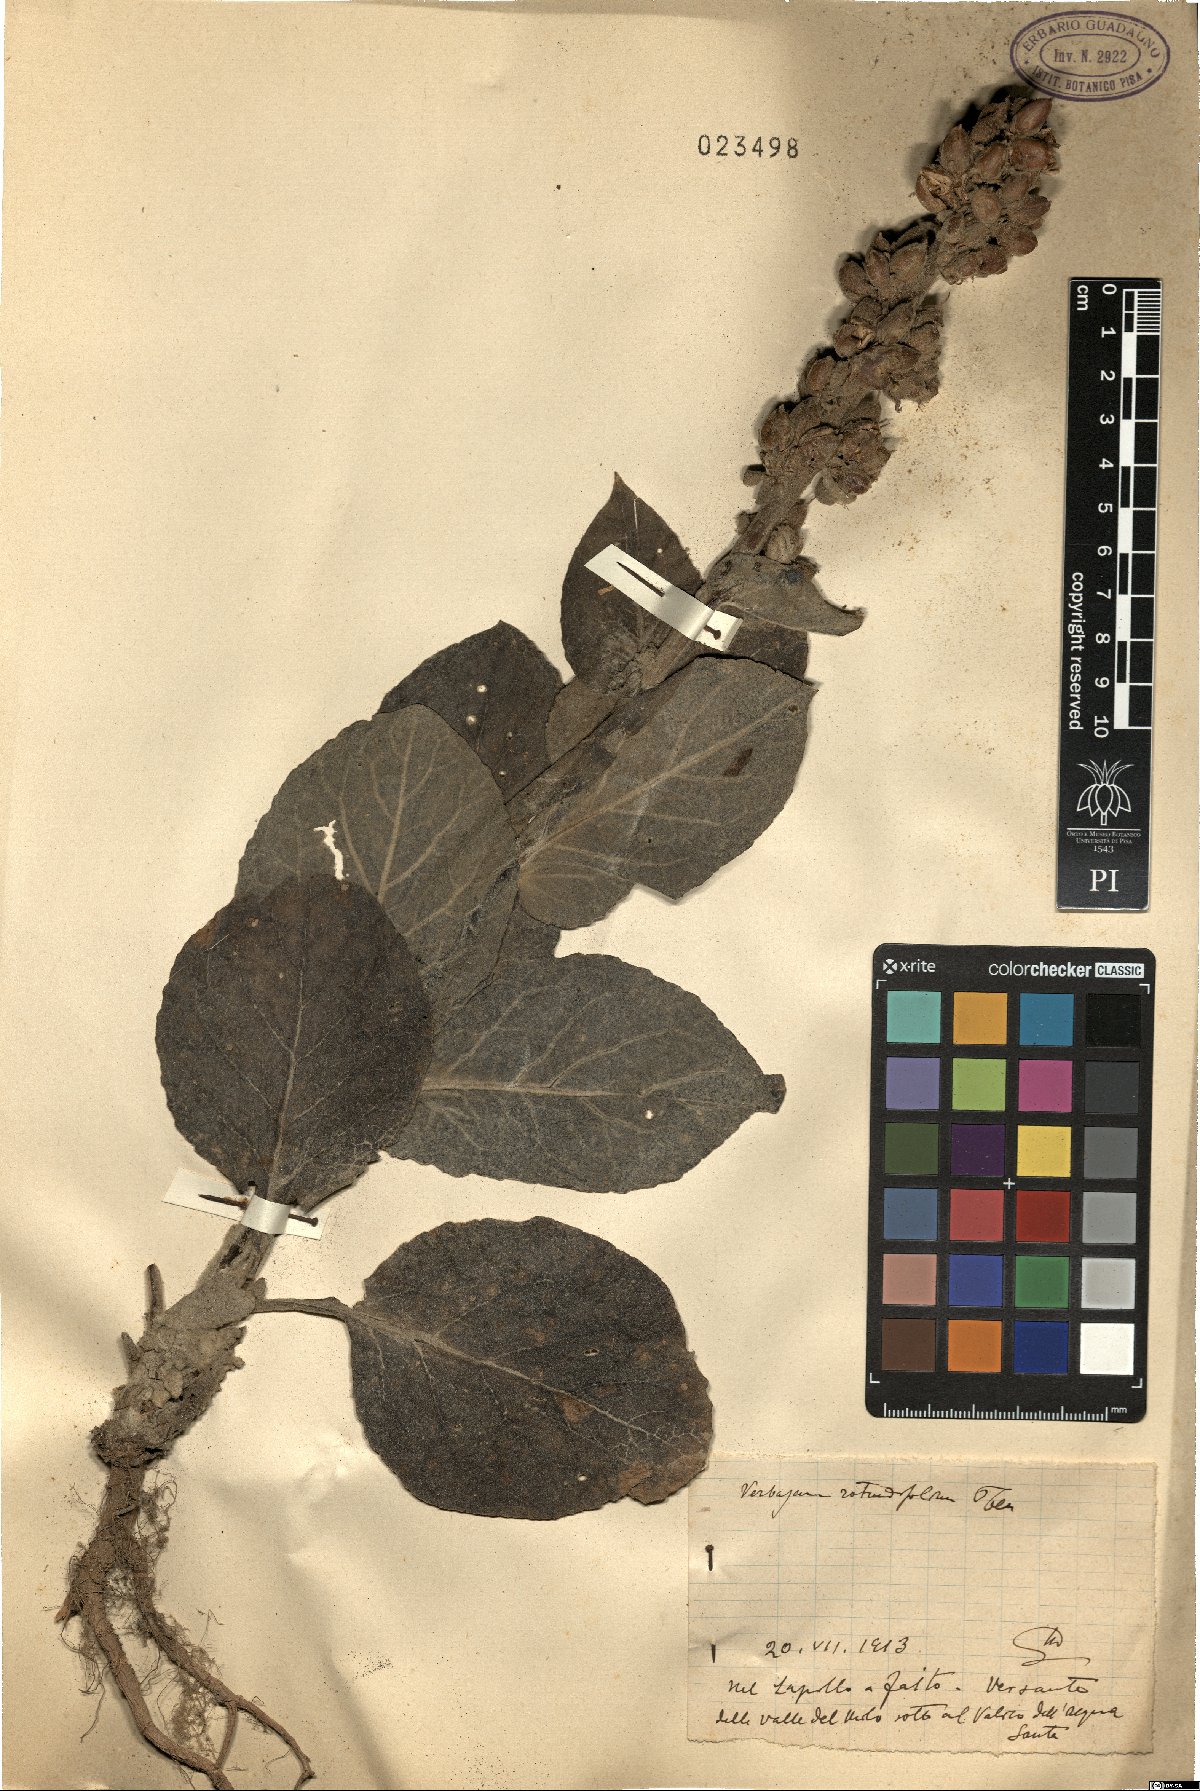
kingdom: Plantae
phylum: Tracheophyta
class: Magnoliopsida
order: Lamiales
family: Scrophulariaceae
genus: Verbascum
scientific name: Verbascum boerhavii
